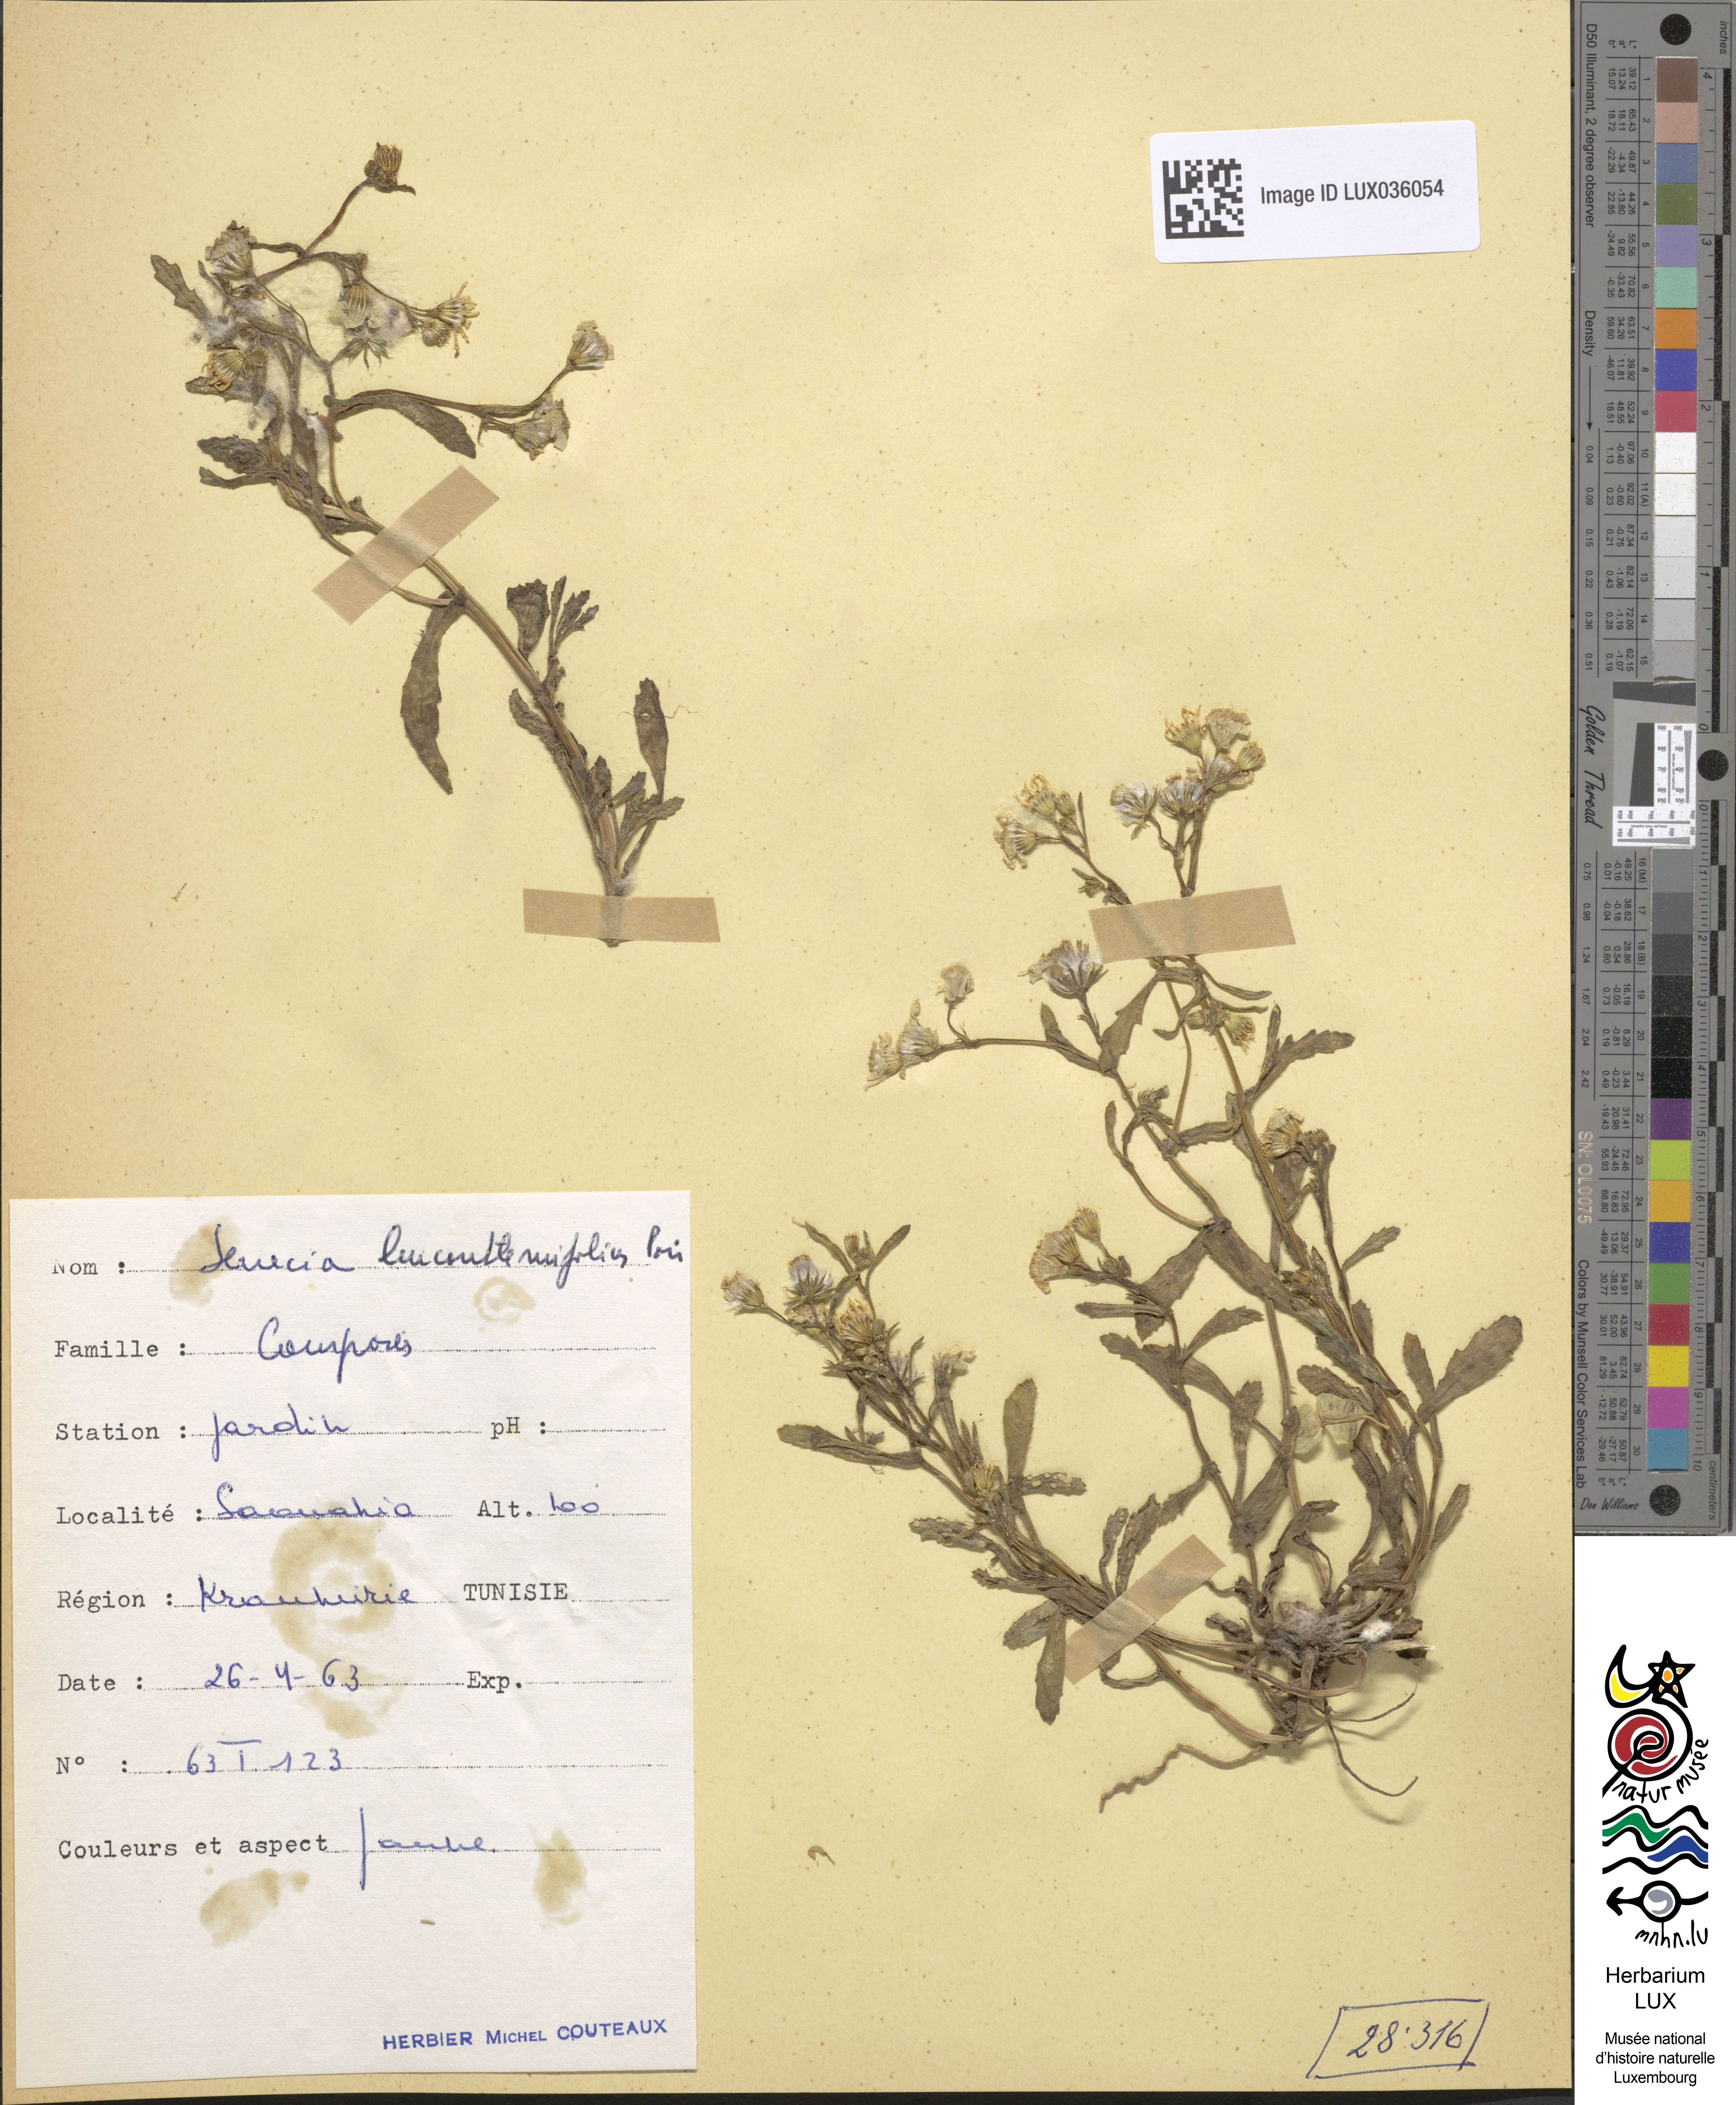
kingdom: Plantae
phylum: Tracheophyta
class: Magnoliopsida
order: Asterales
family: Asteraceae
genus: Senecio
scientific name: Senecio leucanthemifolius
